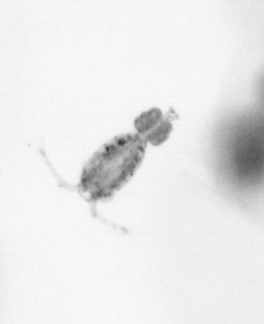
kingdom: Animalia
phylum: Arthropoda
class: Copepoda
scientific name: Copepoda
